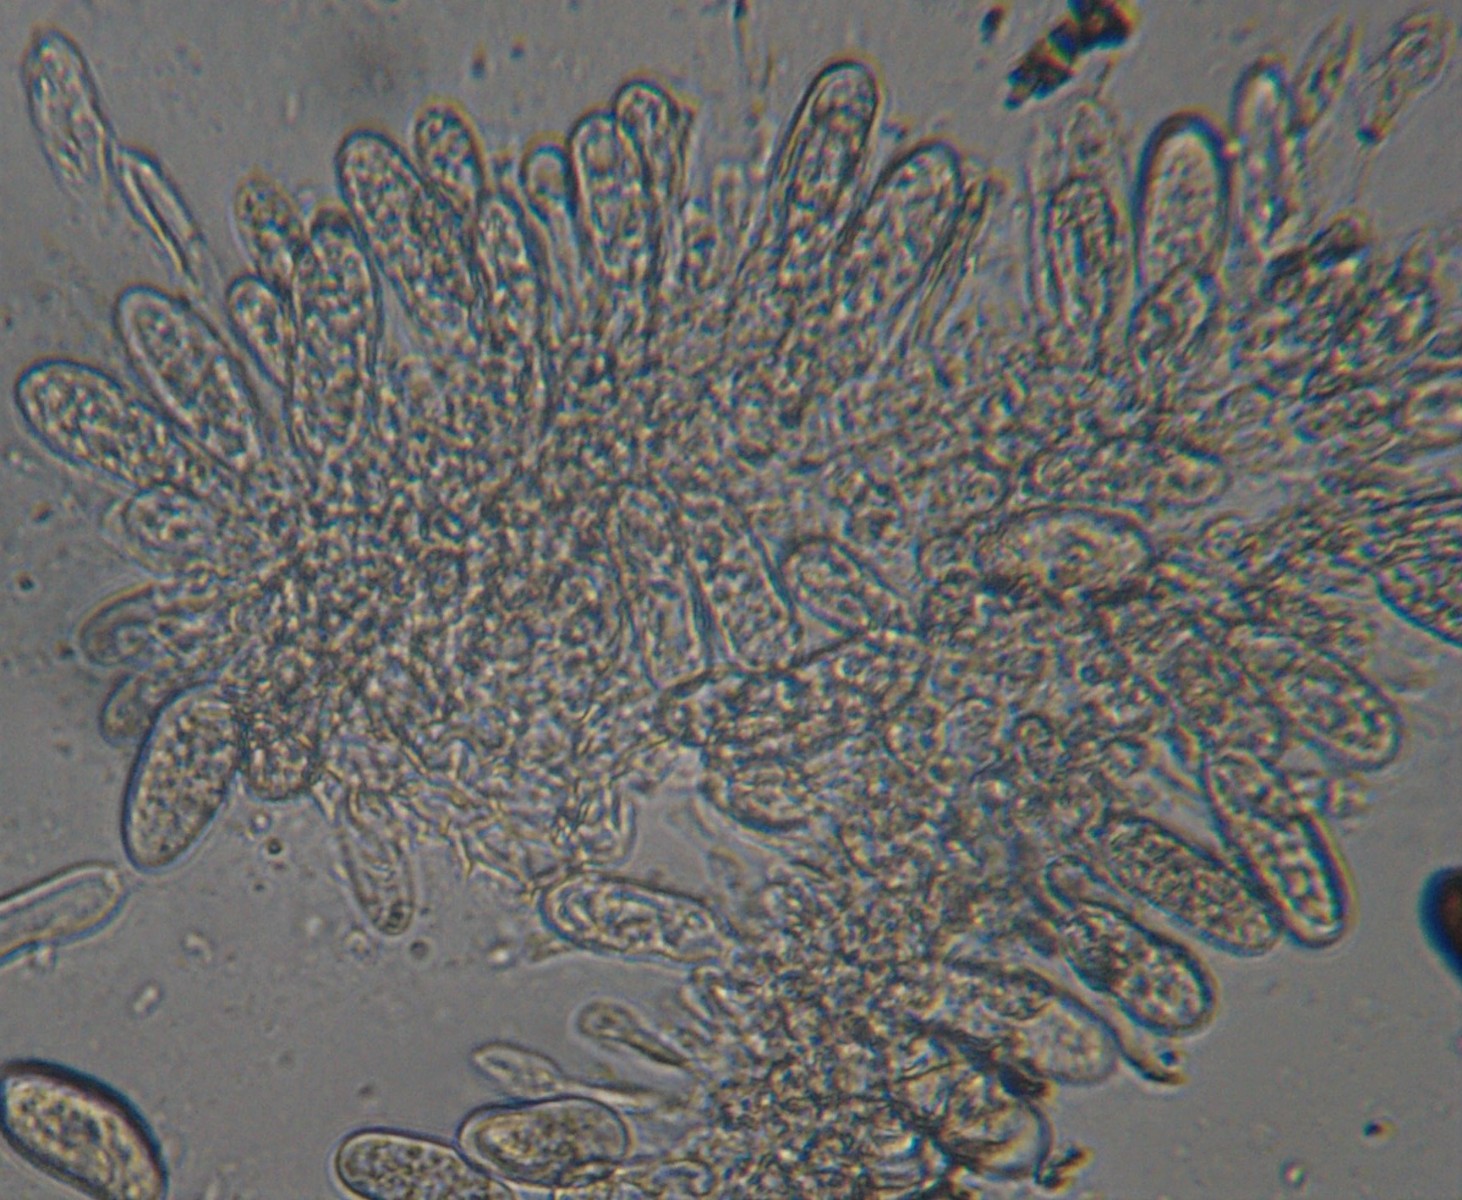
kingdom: Fungi
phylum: Ascomycota
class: Dothideomycetes
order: Botryosphaeriales
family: Botryosphaeriaceae
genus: Sphaeropsis
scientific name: Sphaeropsis sapinea
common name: Sphaeropsis blight
